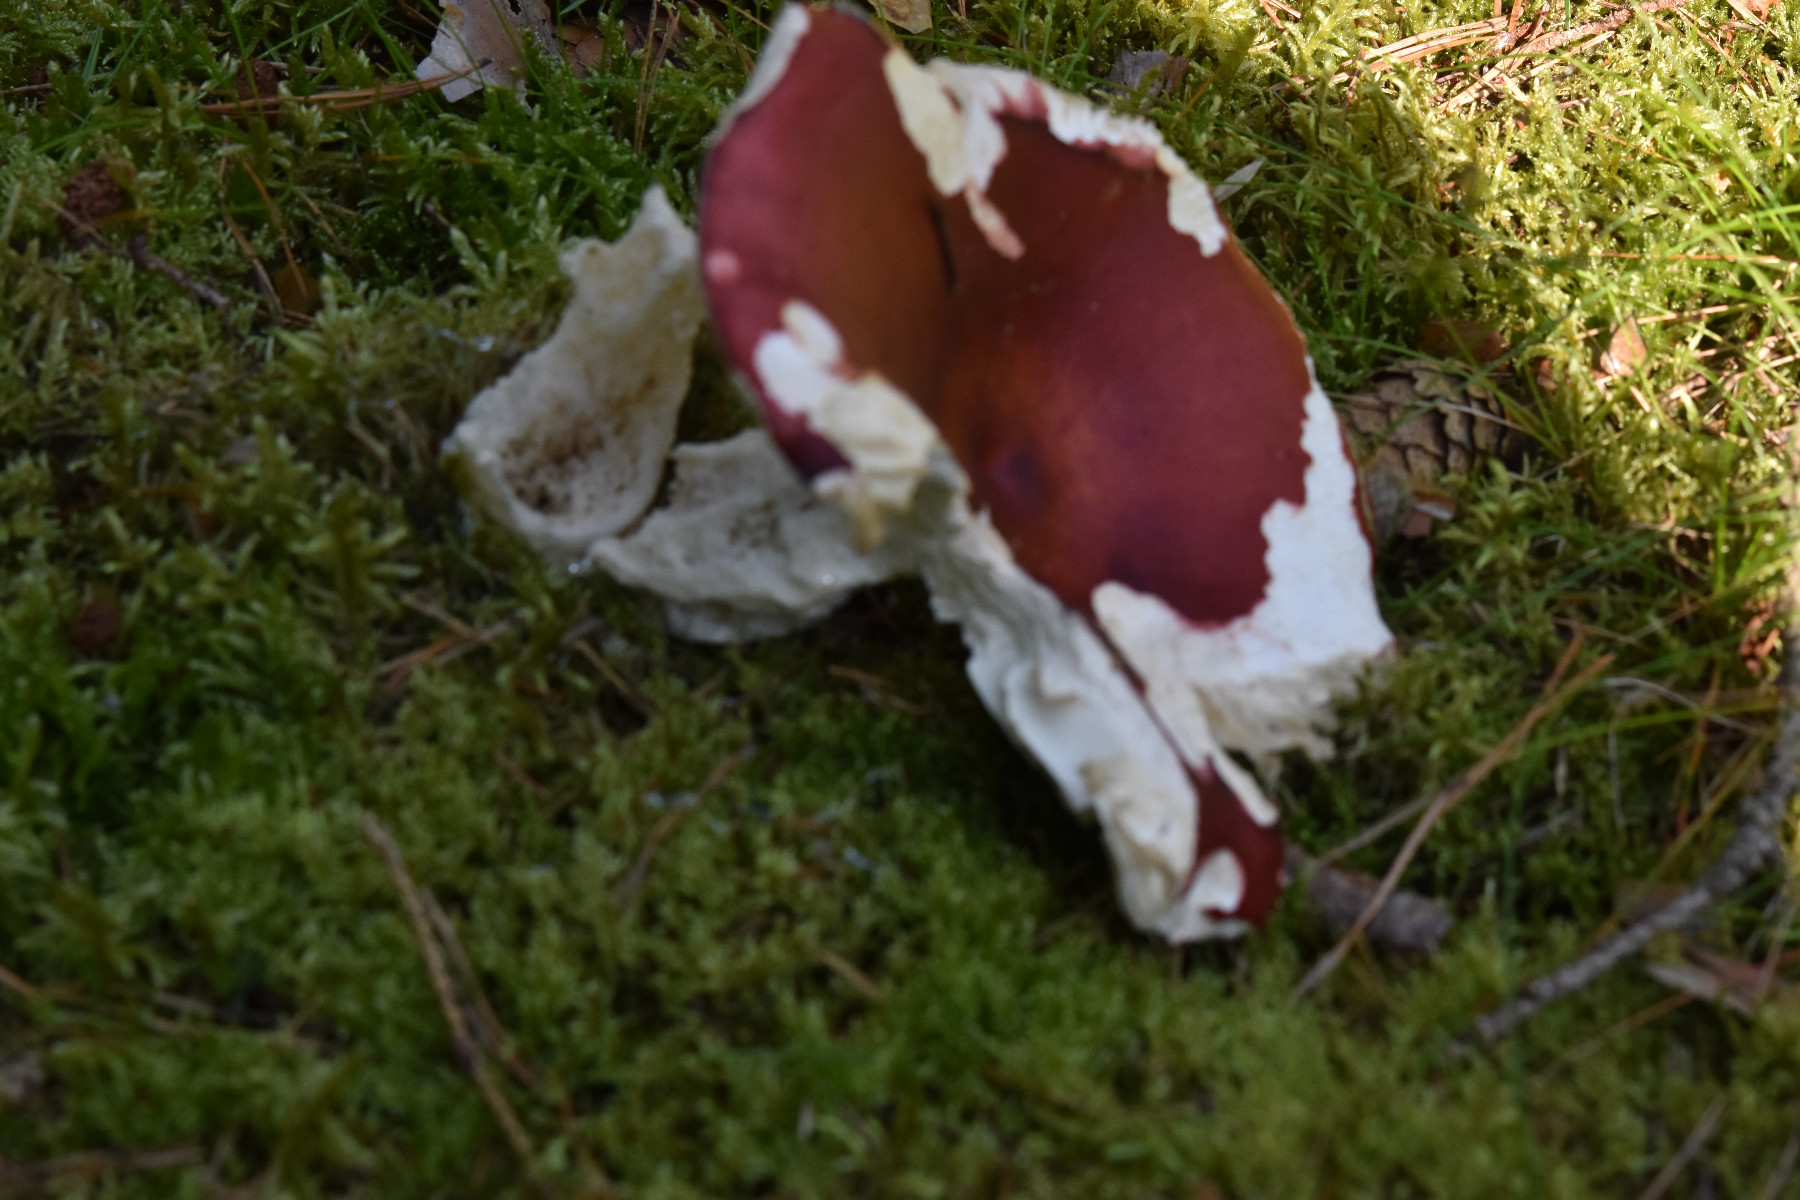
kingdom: Fungi
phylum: Basidiomycota
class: Agaricomycetes
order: Russulales
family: Russulaceae
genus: Russula
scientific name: Russula paludosa
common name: prægtig skørhat
